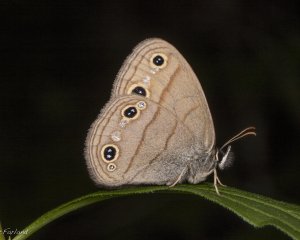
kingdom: Animalia
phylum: Arthropoda
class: Insecta
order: Lepidoptera
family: Nymphalidae
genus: Euptychia
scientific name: Euptychia cymela
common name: Little Wood Satyr
